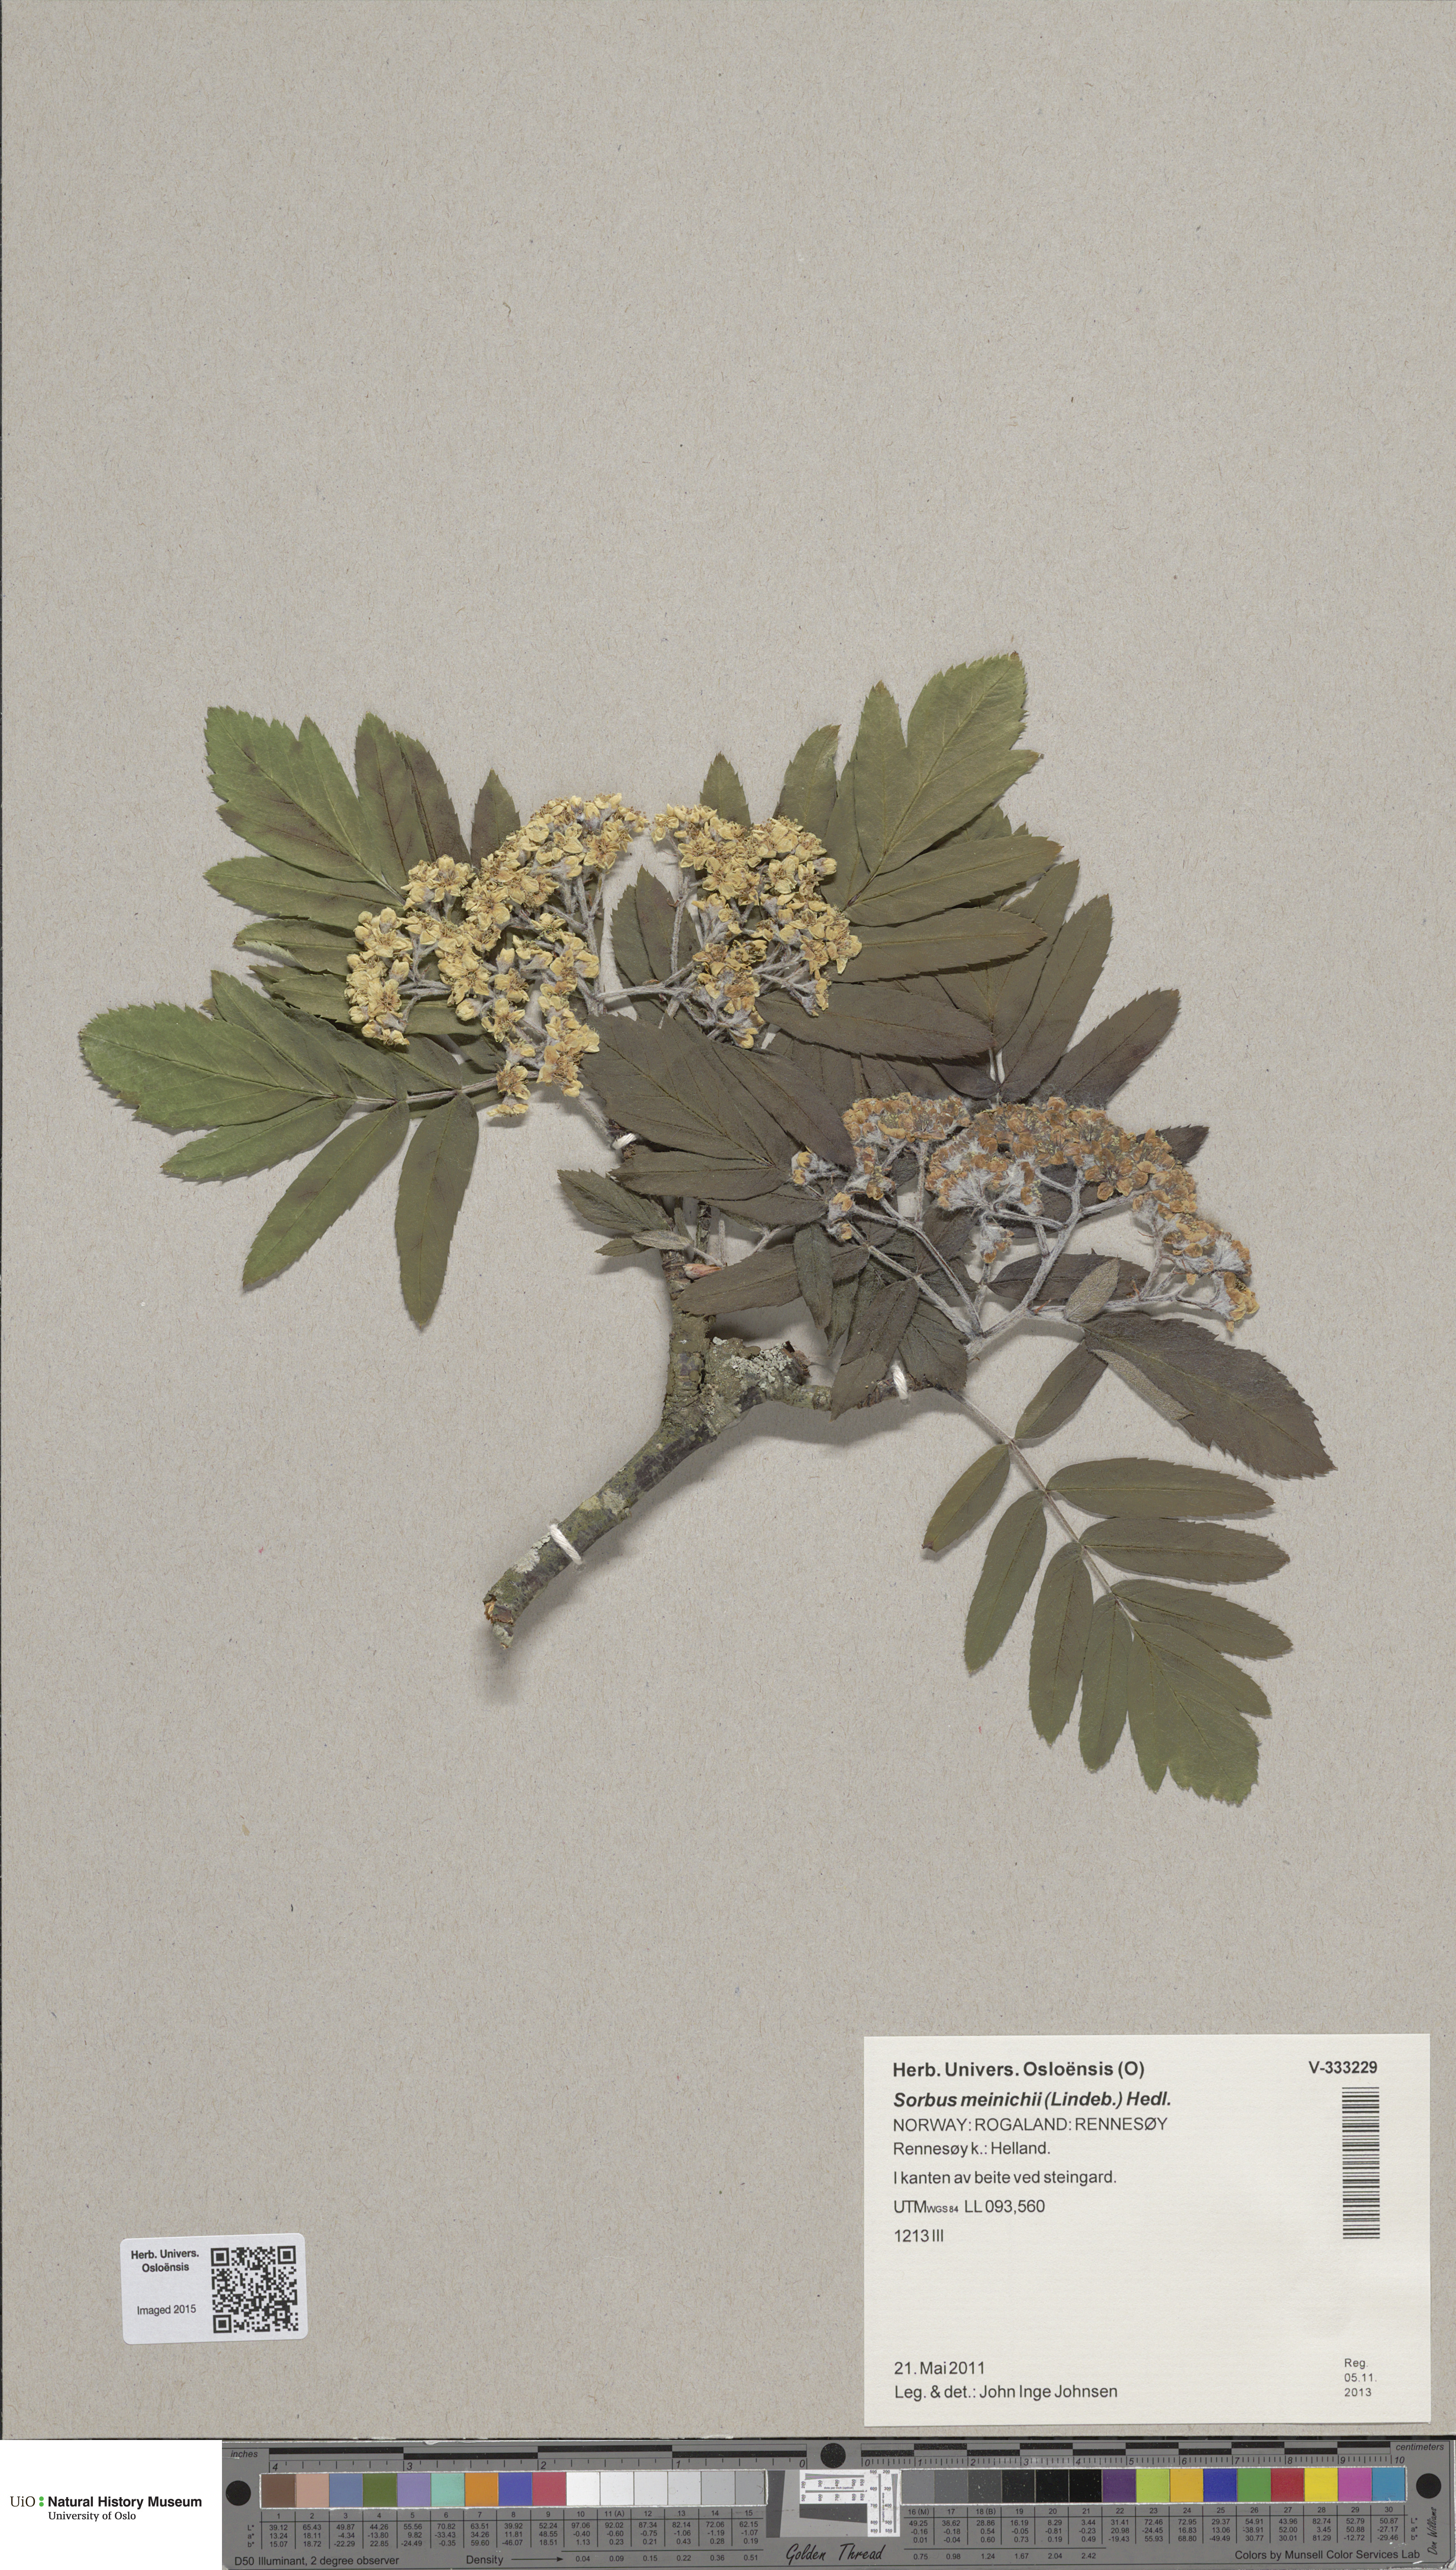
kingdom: Plantae
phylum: Tracheophyta
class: Magnoliopsida
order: Rosales
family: Rosaceae
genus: Hedlundia
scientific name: Hedlundia meinichii
